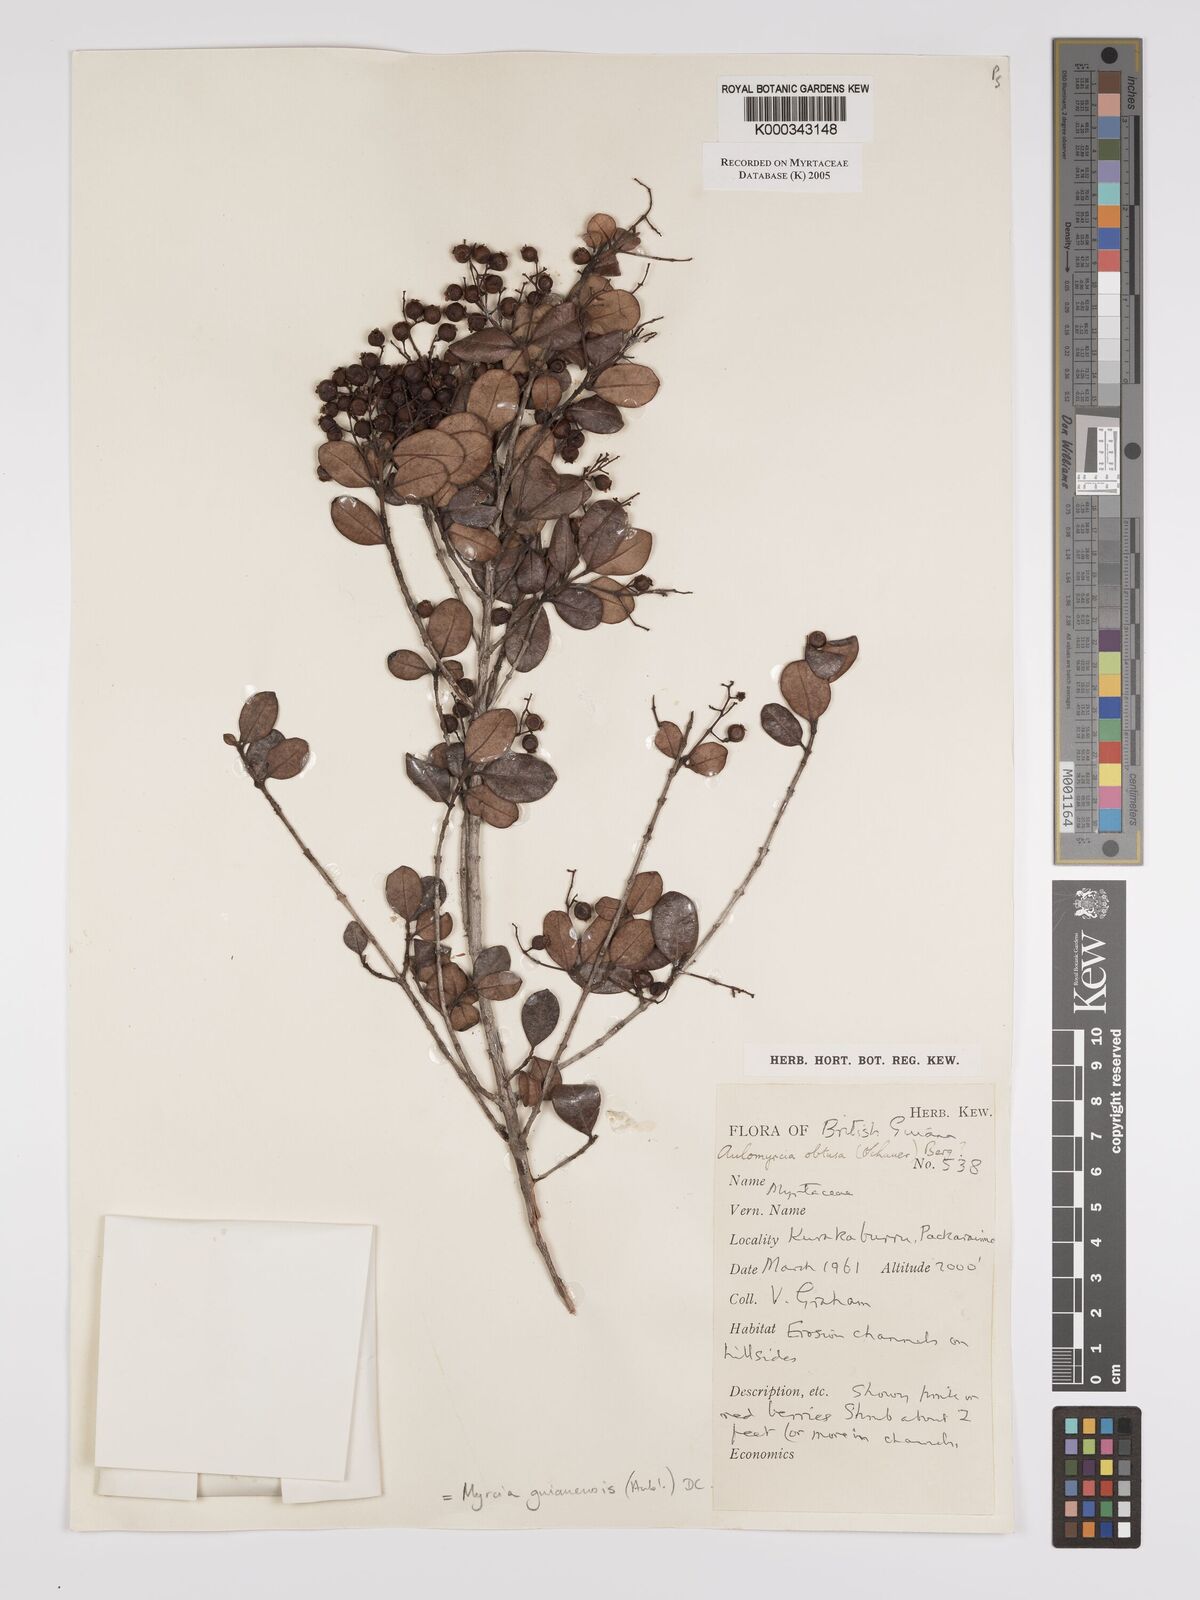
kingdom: Plantae
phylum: Tracheophyta
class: Magnoliopsida
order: Myrtales
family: Myrtaceae
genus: Myrcia
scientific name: Myrcia guianensis
